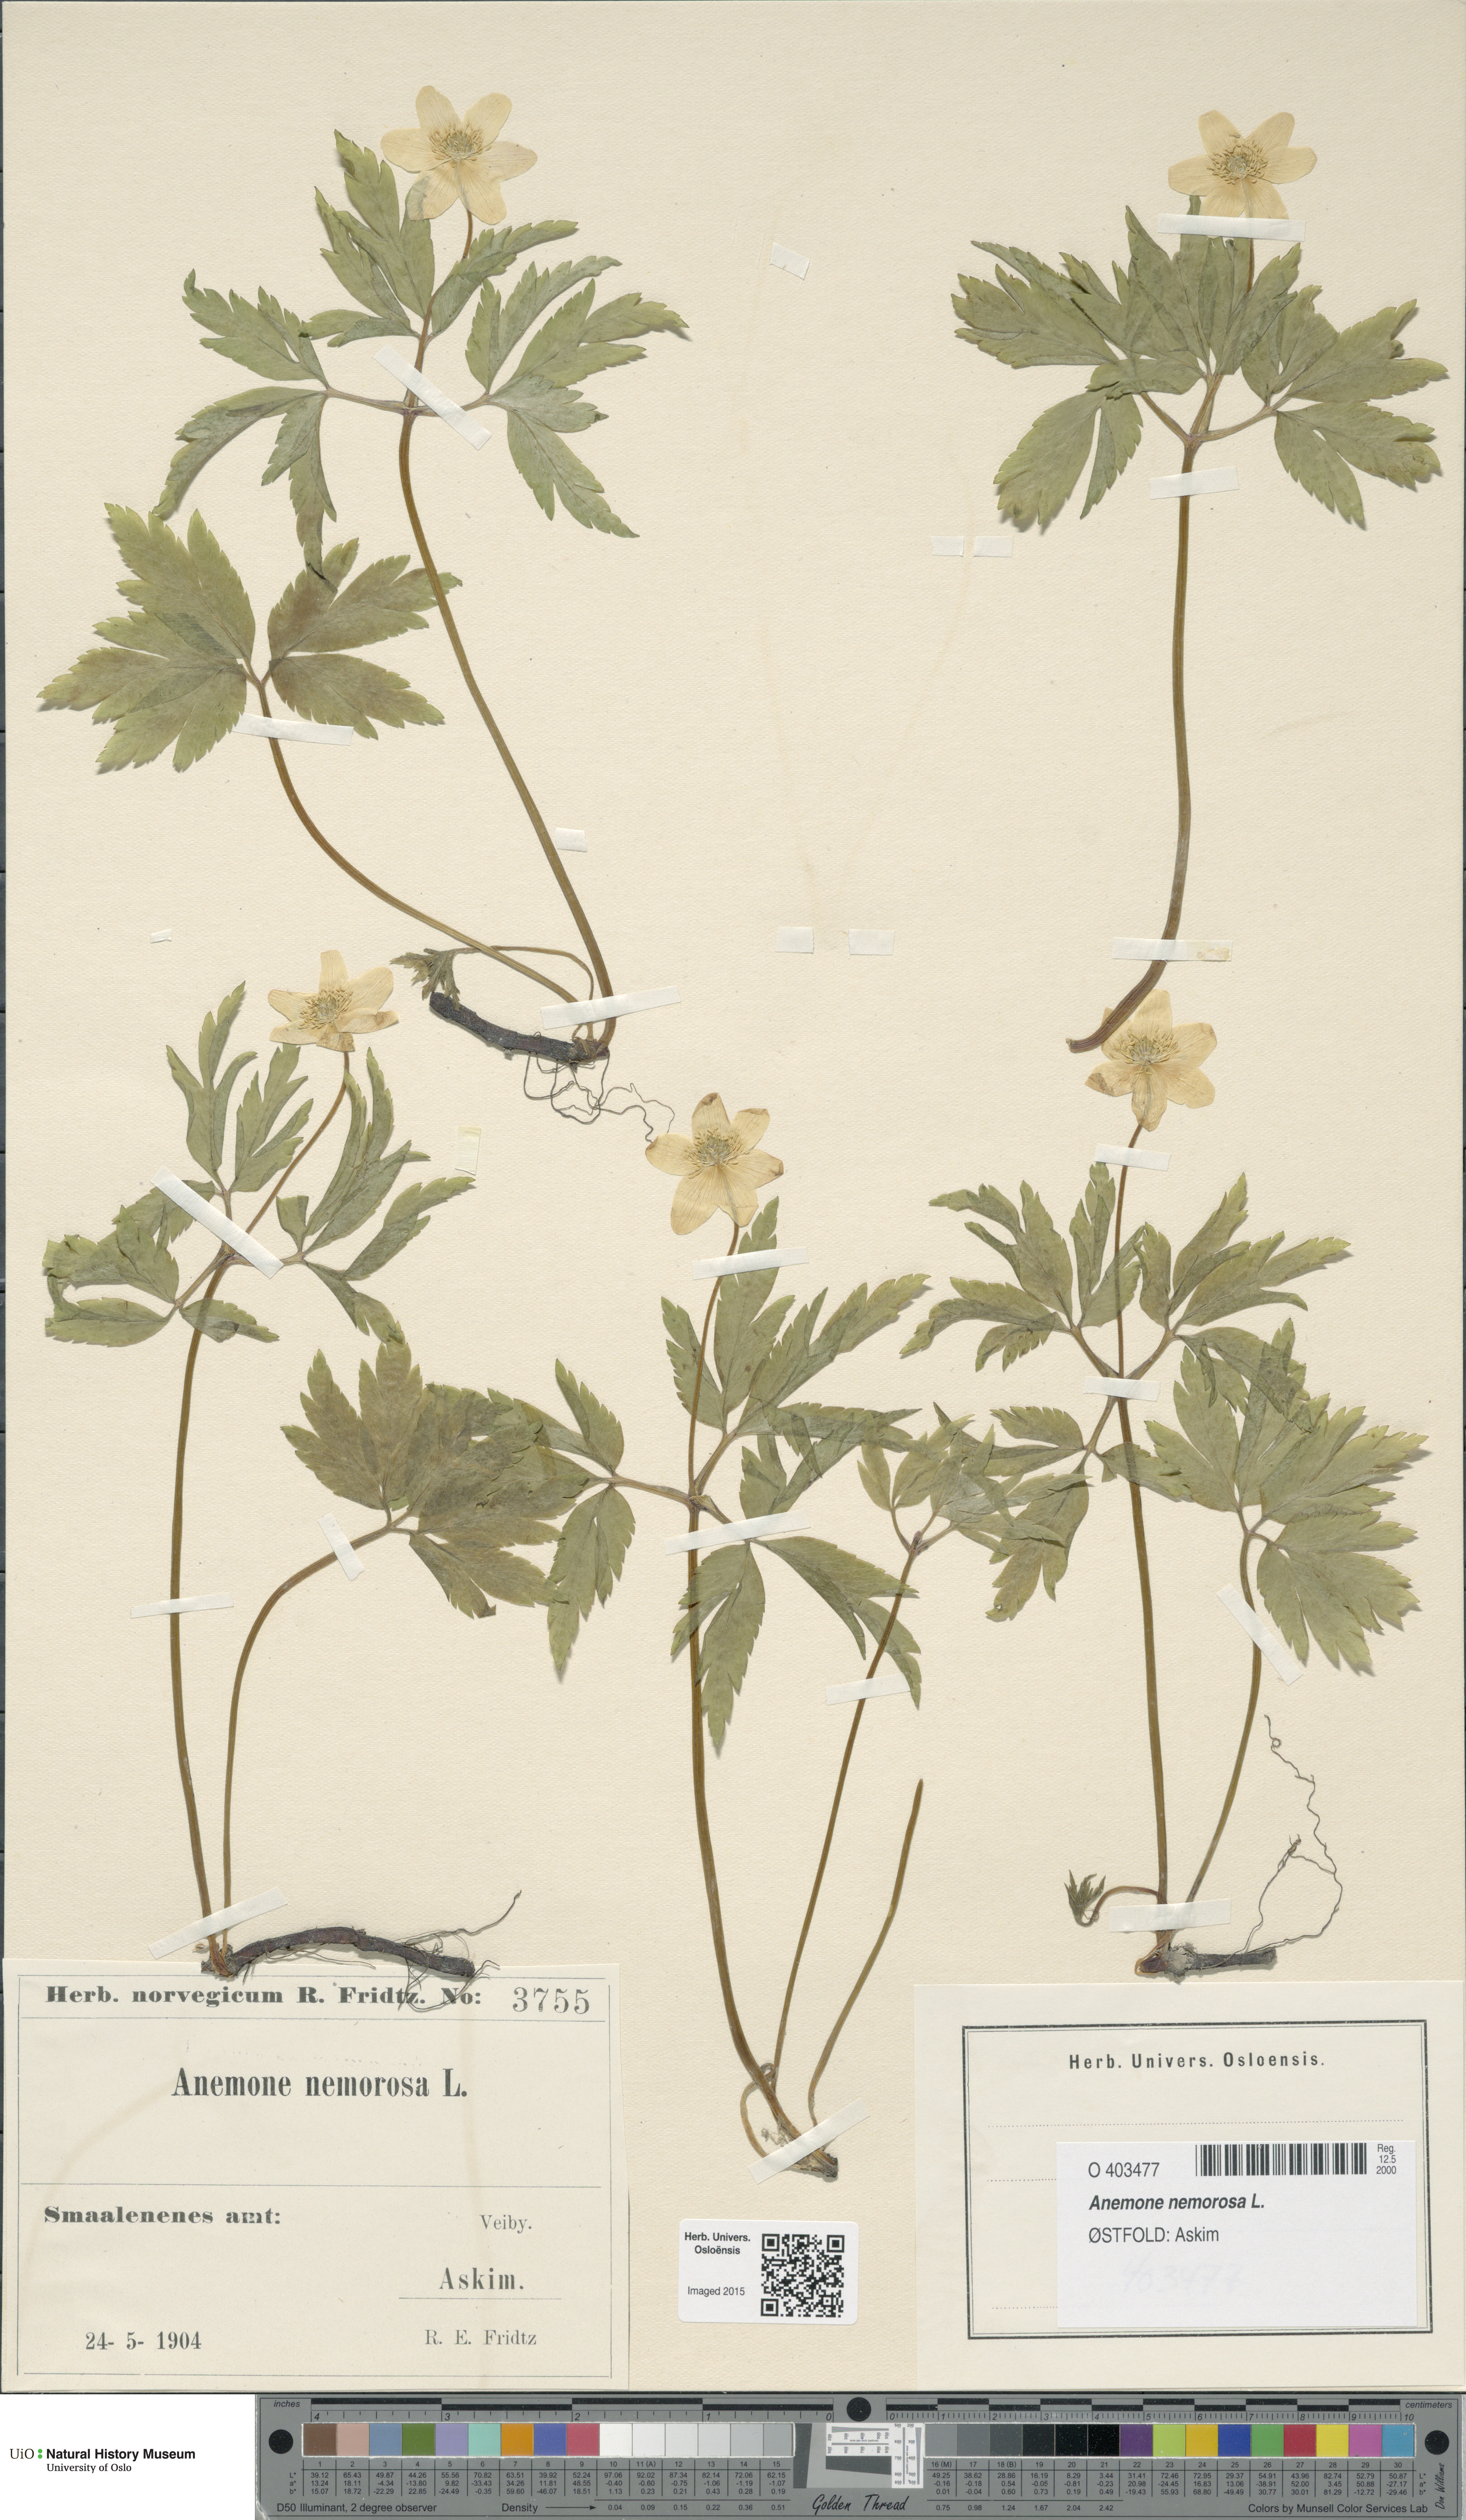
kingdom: Plantae
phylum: Tracheophyta
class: Magnoliopsida
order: Ranunculales
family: Ranunculaceae
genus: Anemone
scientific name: Anemone nemorosa
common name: Wood anemone
